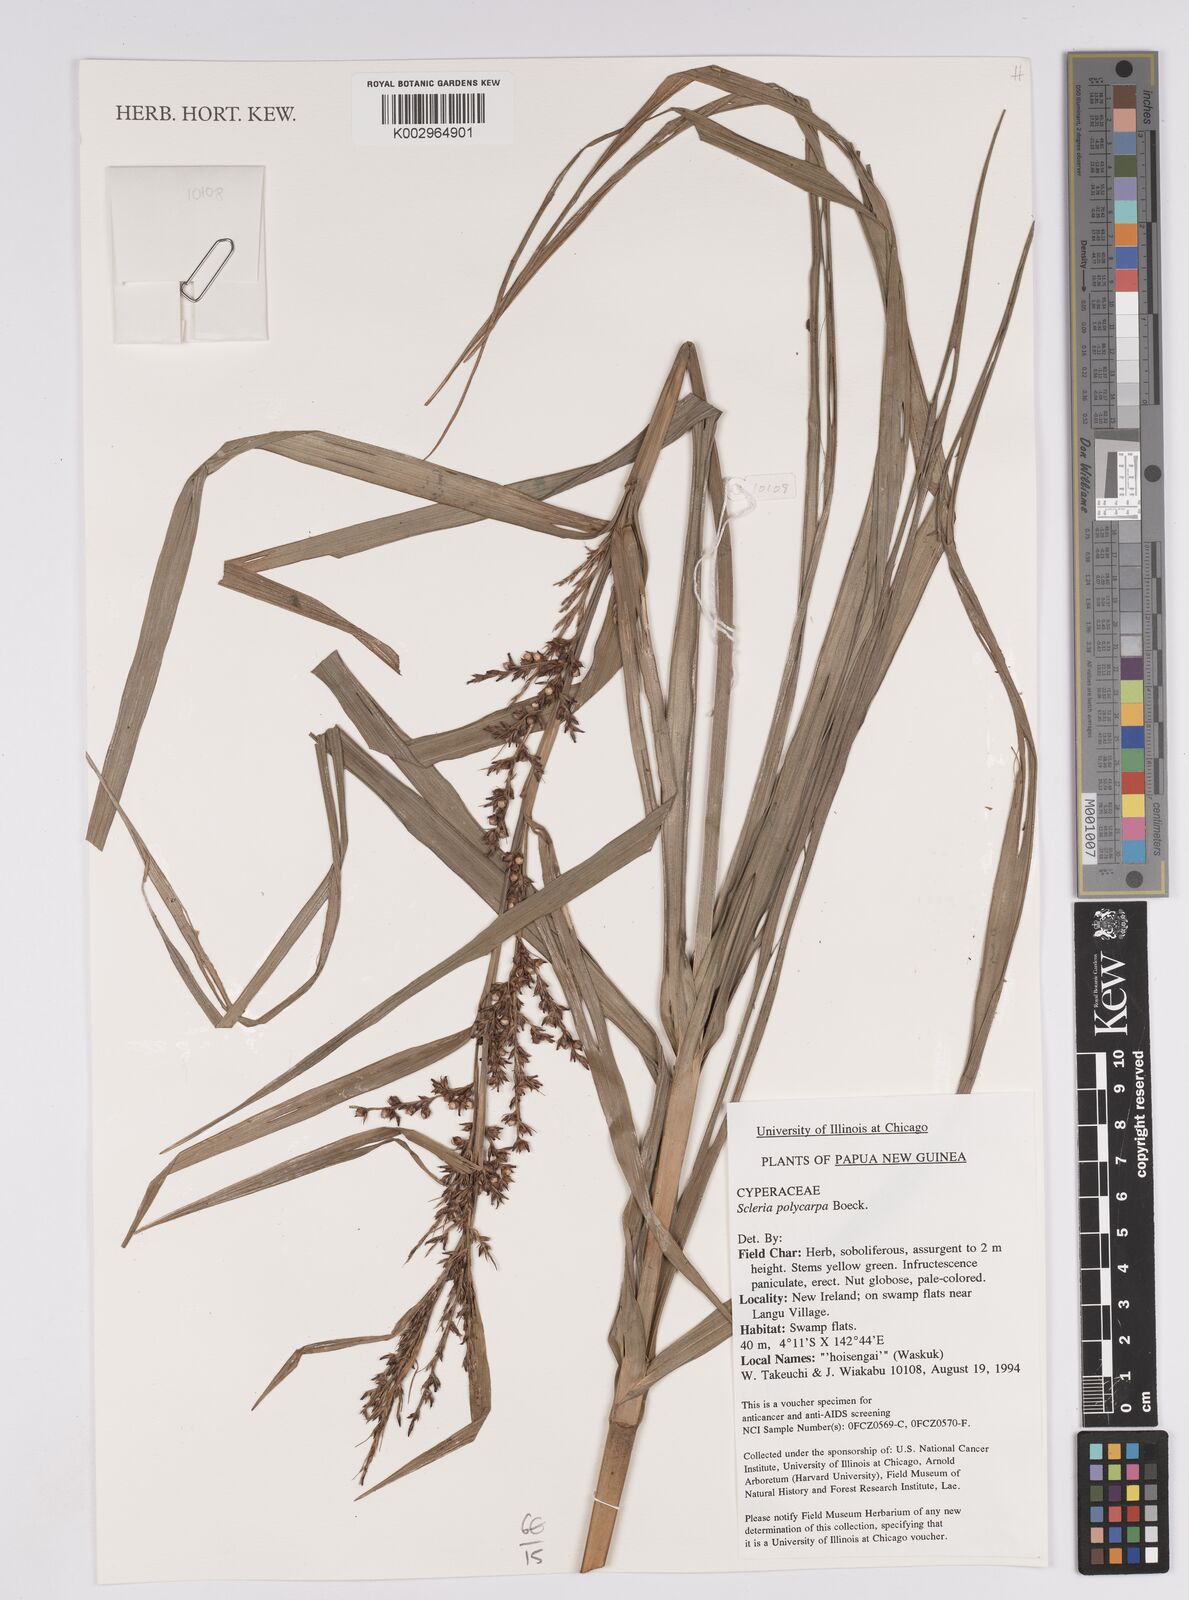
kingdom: Plantae
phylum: Tracheophyta
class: Liliopsida
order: Poales
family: Cyperaceae
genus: Scleria
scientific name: Scleria polycarpa
